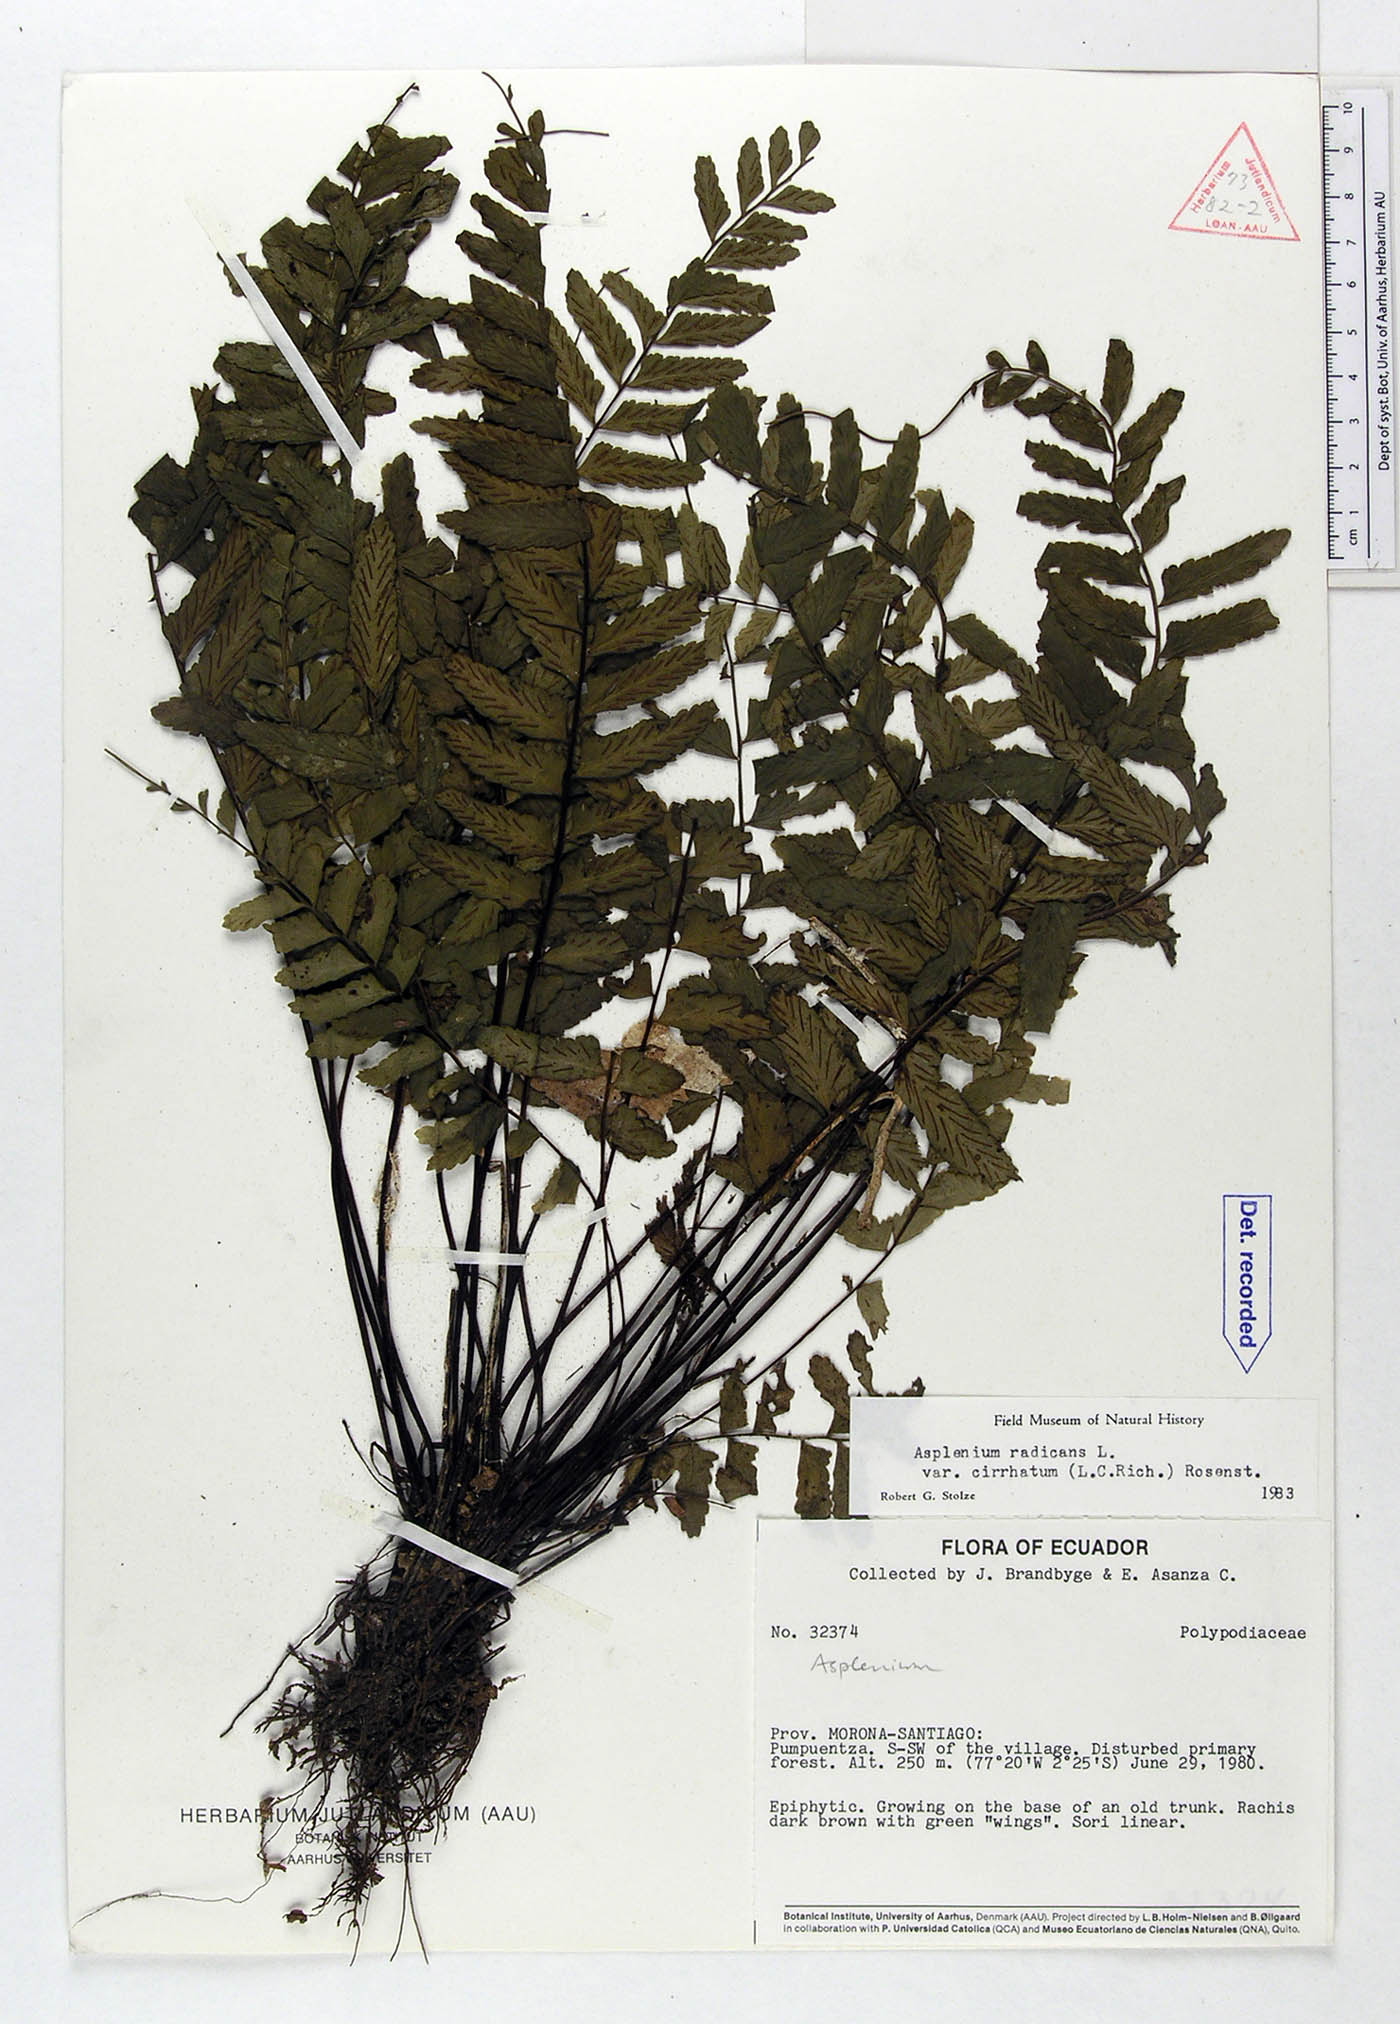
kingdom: Plantae
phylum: Tracheophyta
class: Polypodiopsida
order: Polypodiales
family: Aspleniaceae
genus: Asplenium
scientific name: Asplenium radicans
